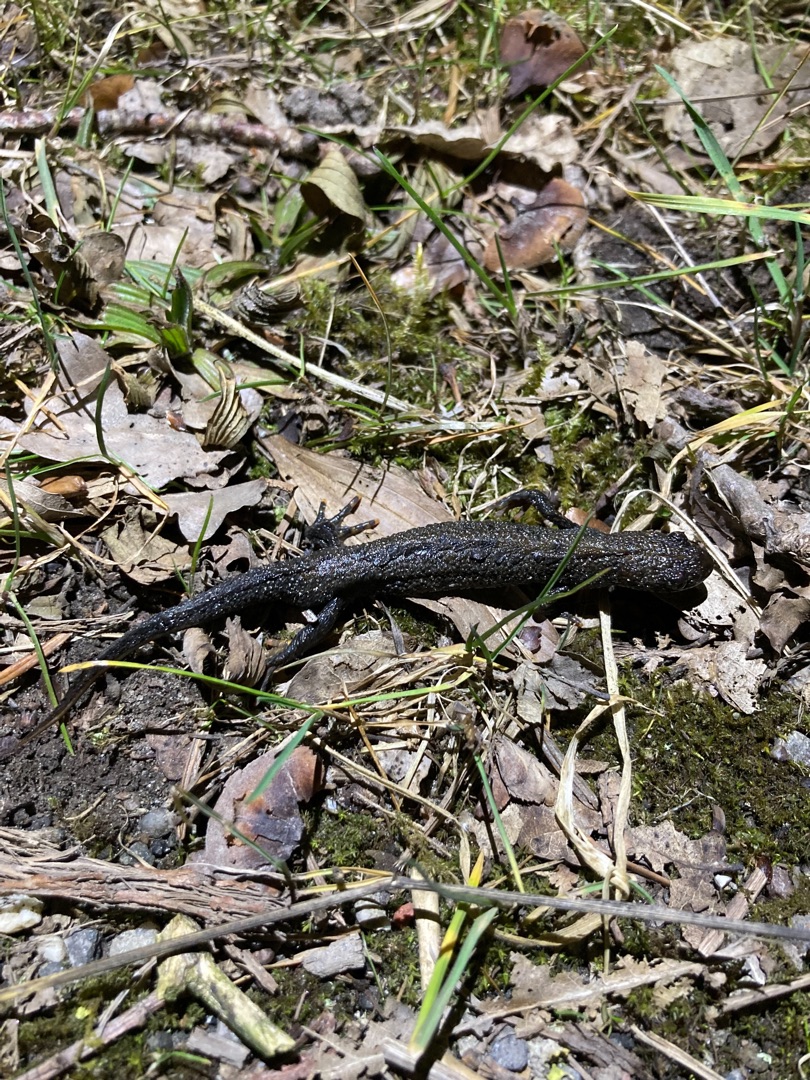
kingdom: Animalia
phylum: Chordata
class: Amphibia
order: Caudata
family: Salamandridae
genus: Triturus
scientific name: Triturus cristatus
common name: Stor vandsalamander
